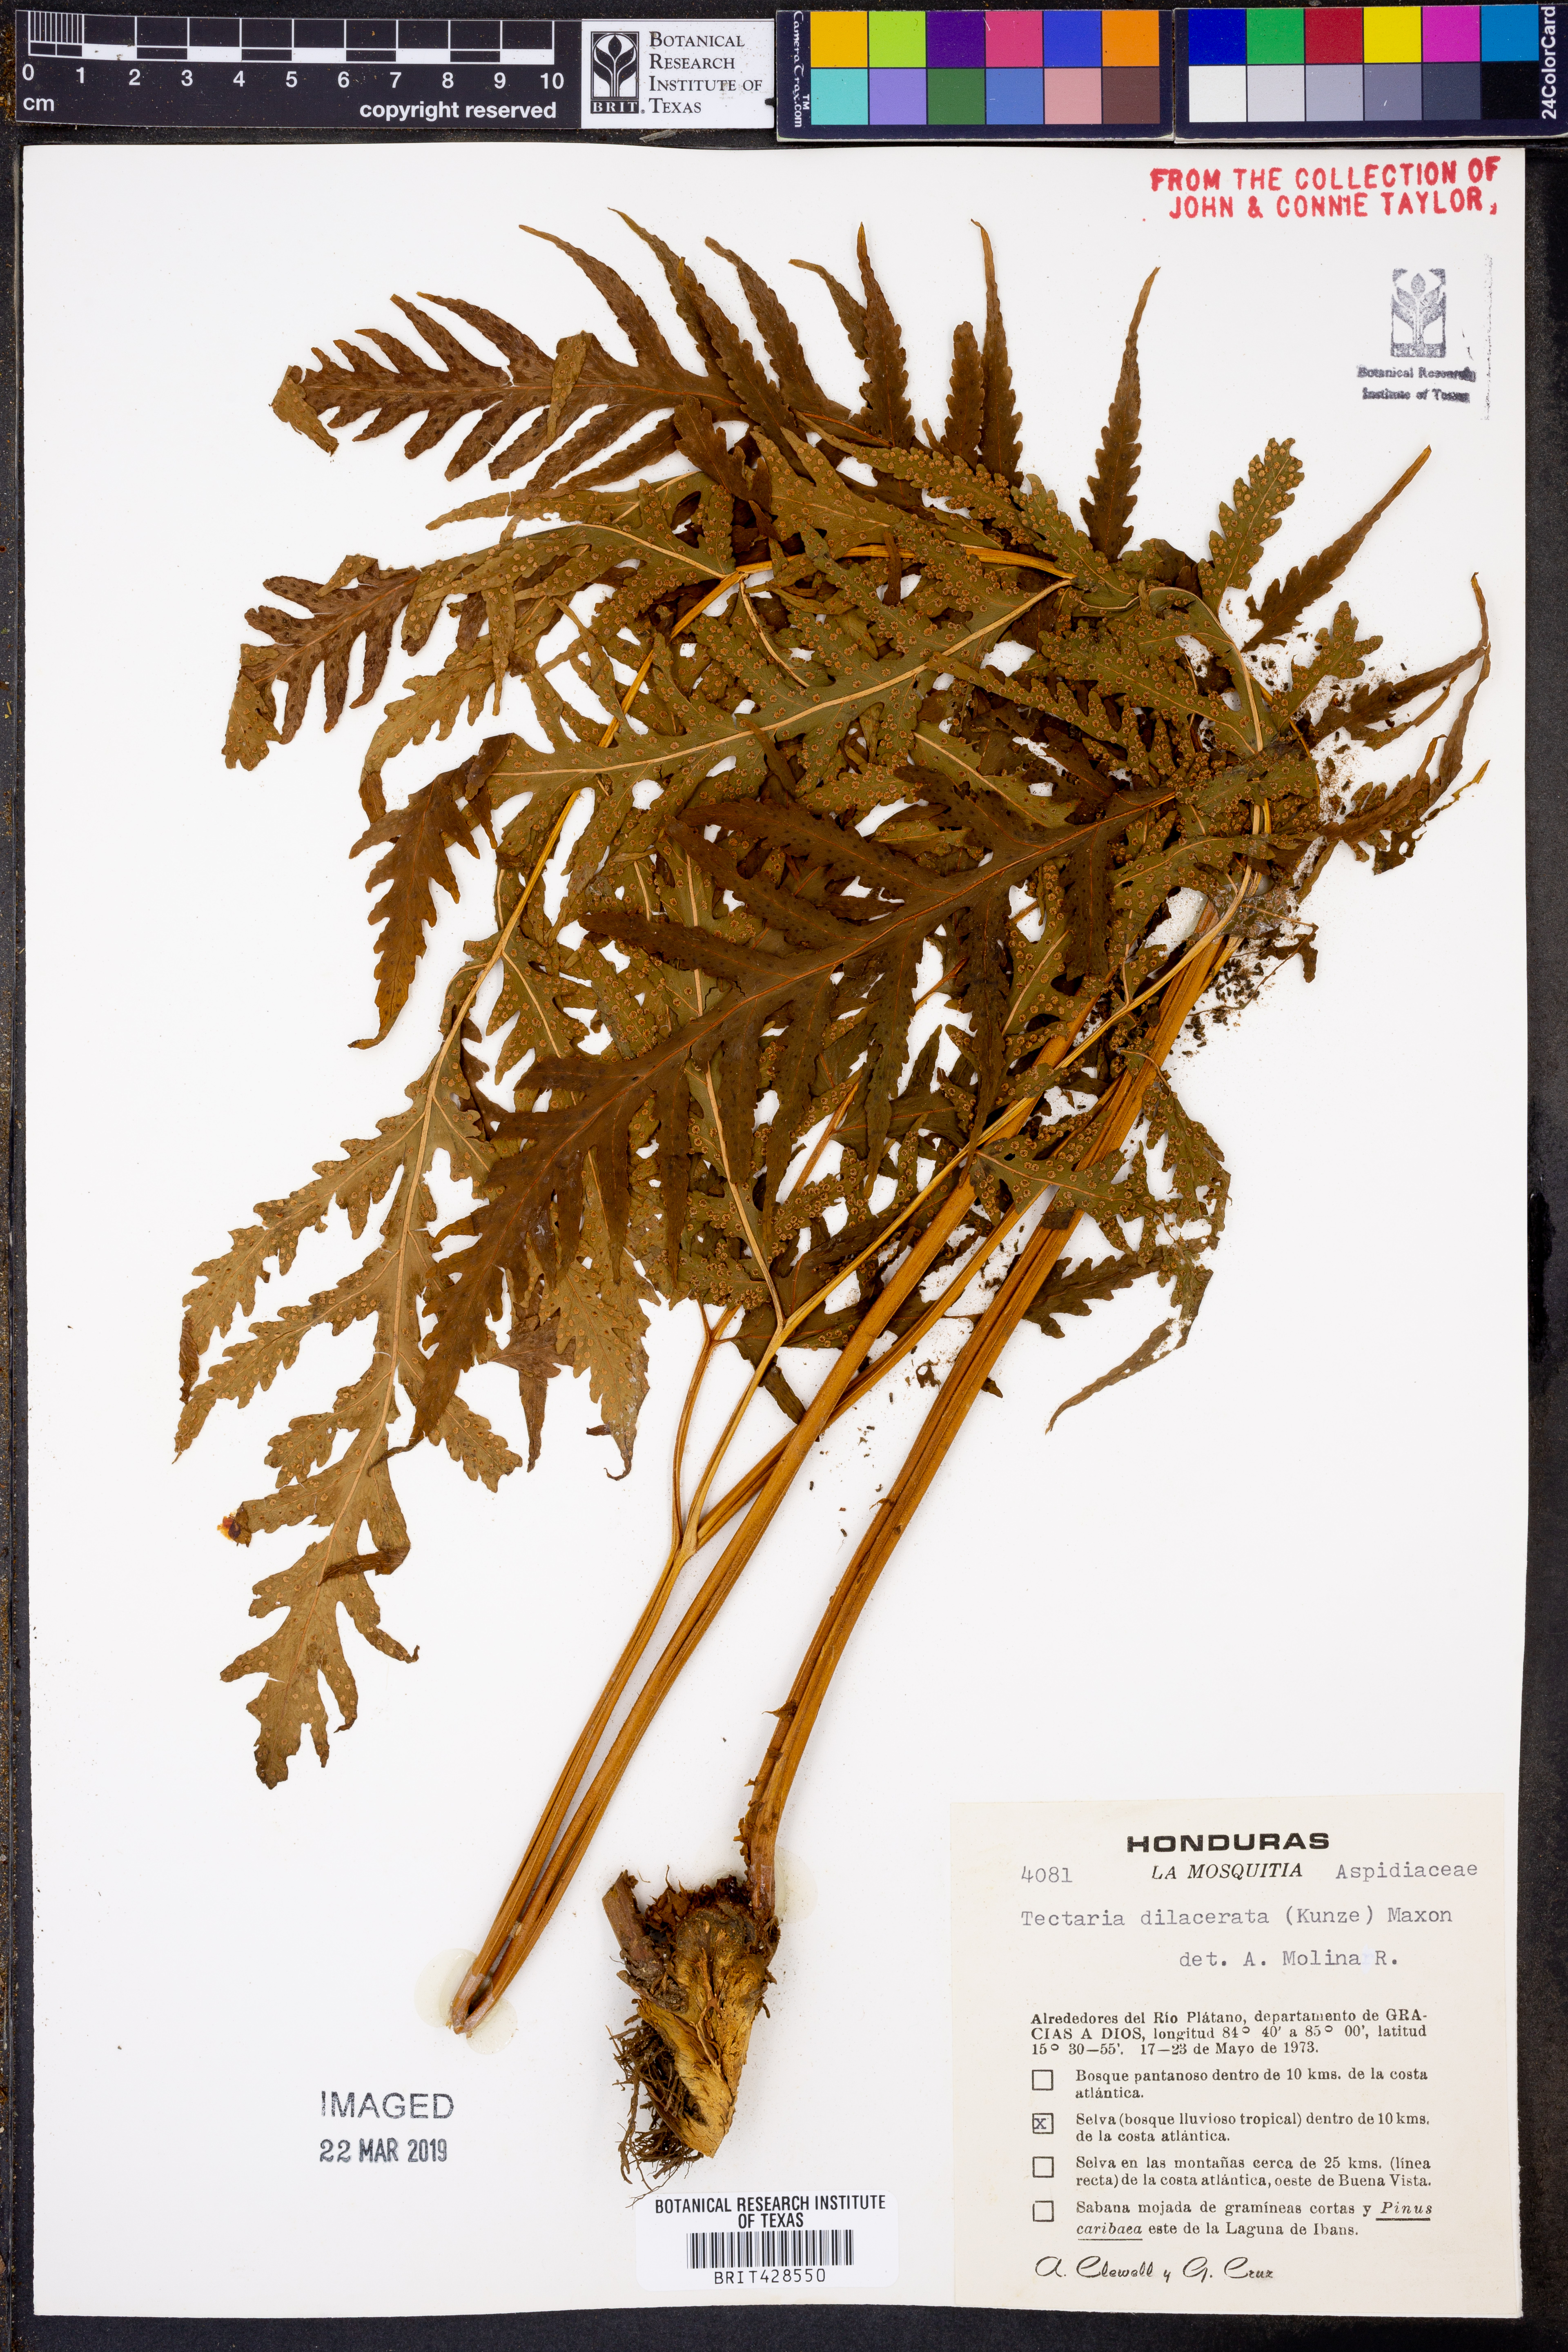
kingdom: Plantae
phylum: Tracheophyta
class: Polypodiopsida
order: Polypodiales
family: Tectariaceae
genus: Tectaria
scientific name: Tectaria cicutaria
